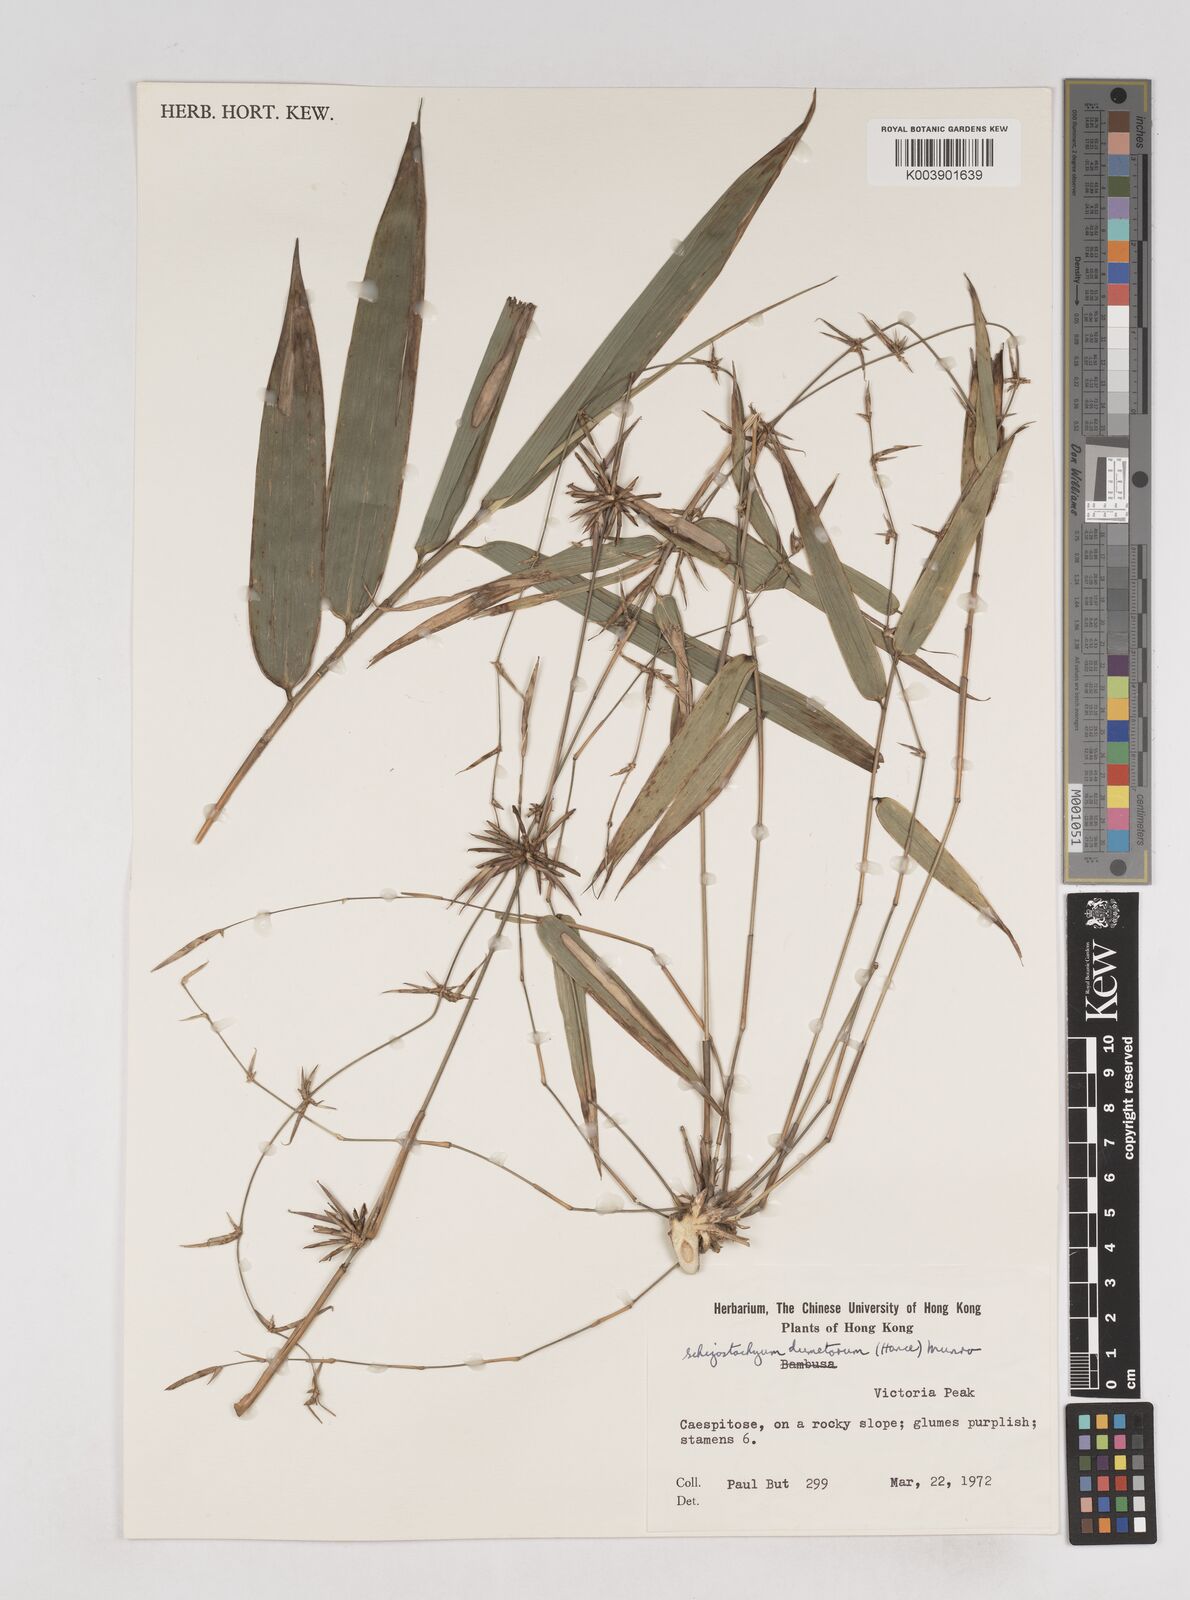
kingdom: Plantae
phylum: Tracheophyta
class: Liliopsida
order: Poales
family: Poaceae
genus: Schizostachyum
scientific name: Schizostachyum dumetorum
